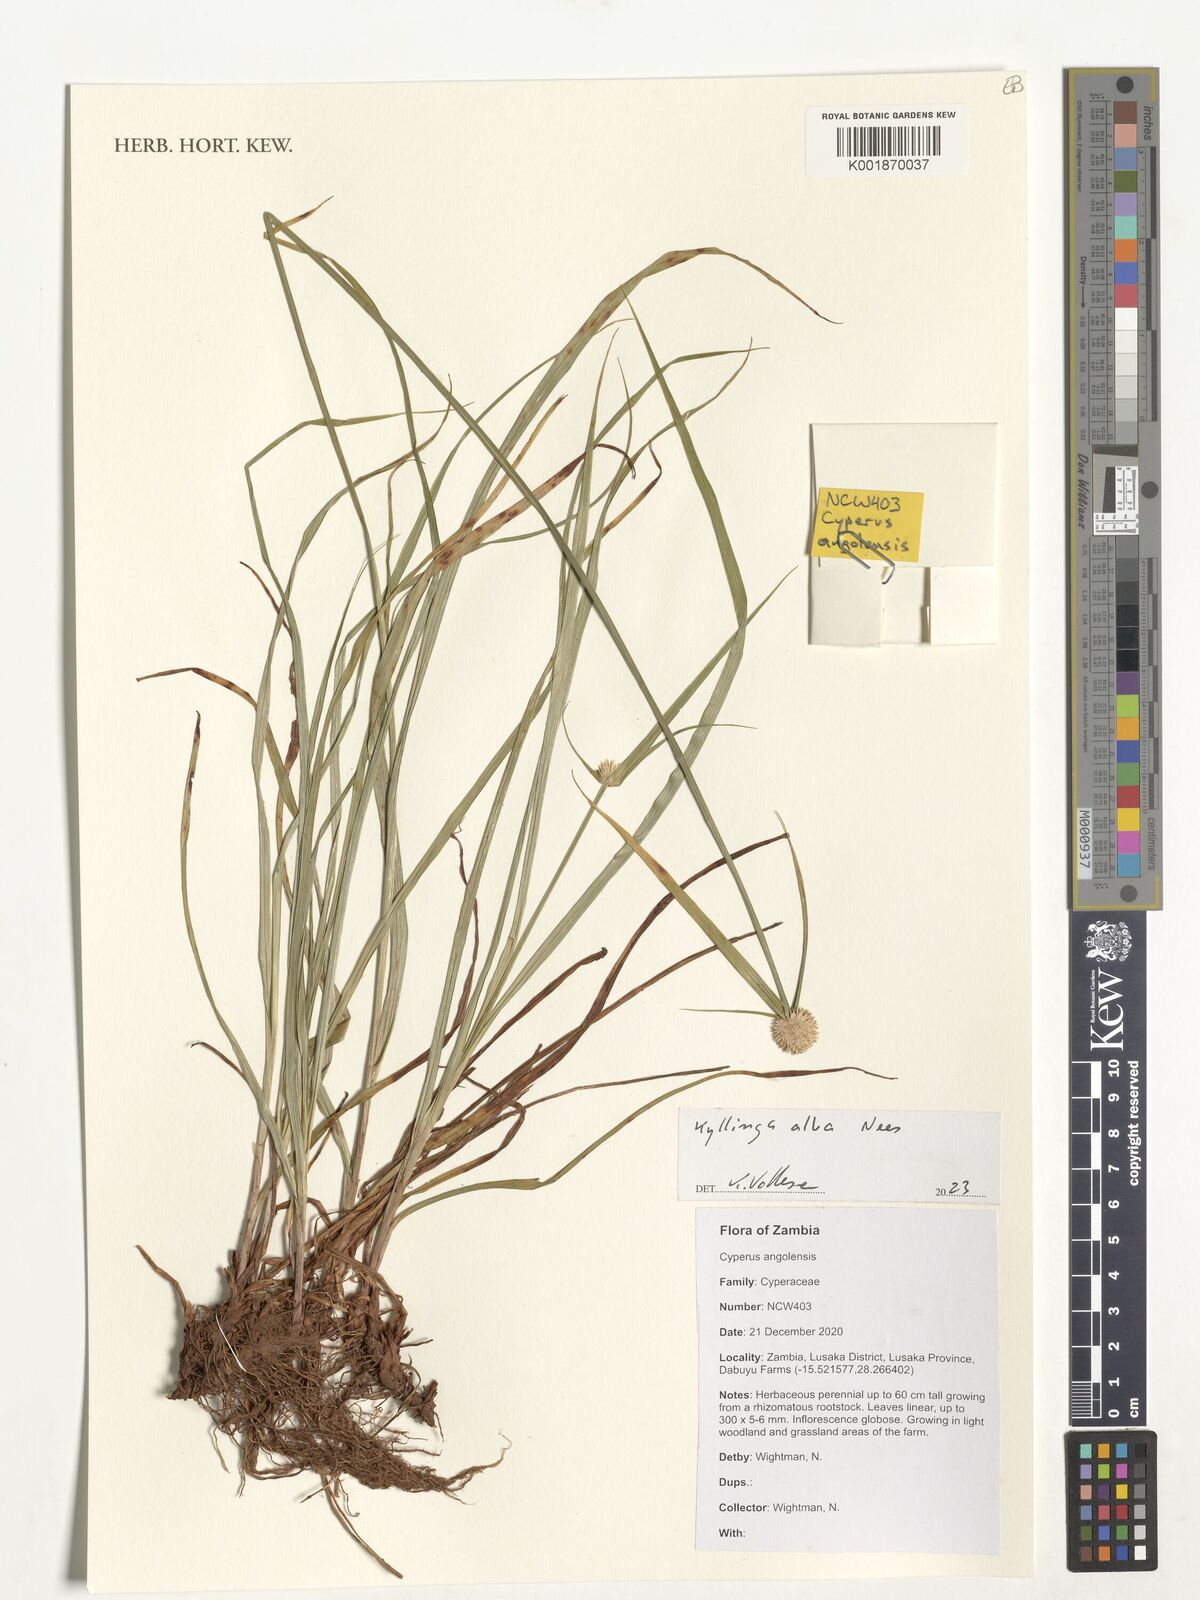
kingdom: Plantae
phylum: Tracheophyta
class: Liliopsida
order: Poales
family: Cyperaceae
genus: Cyperus
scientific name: Cyperus alatus
